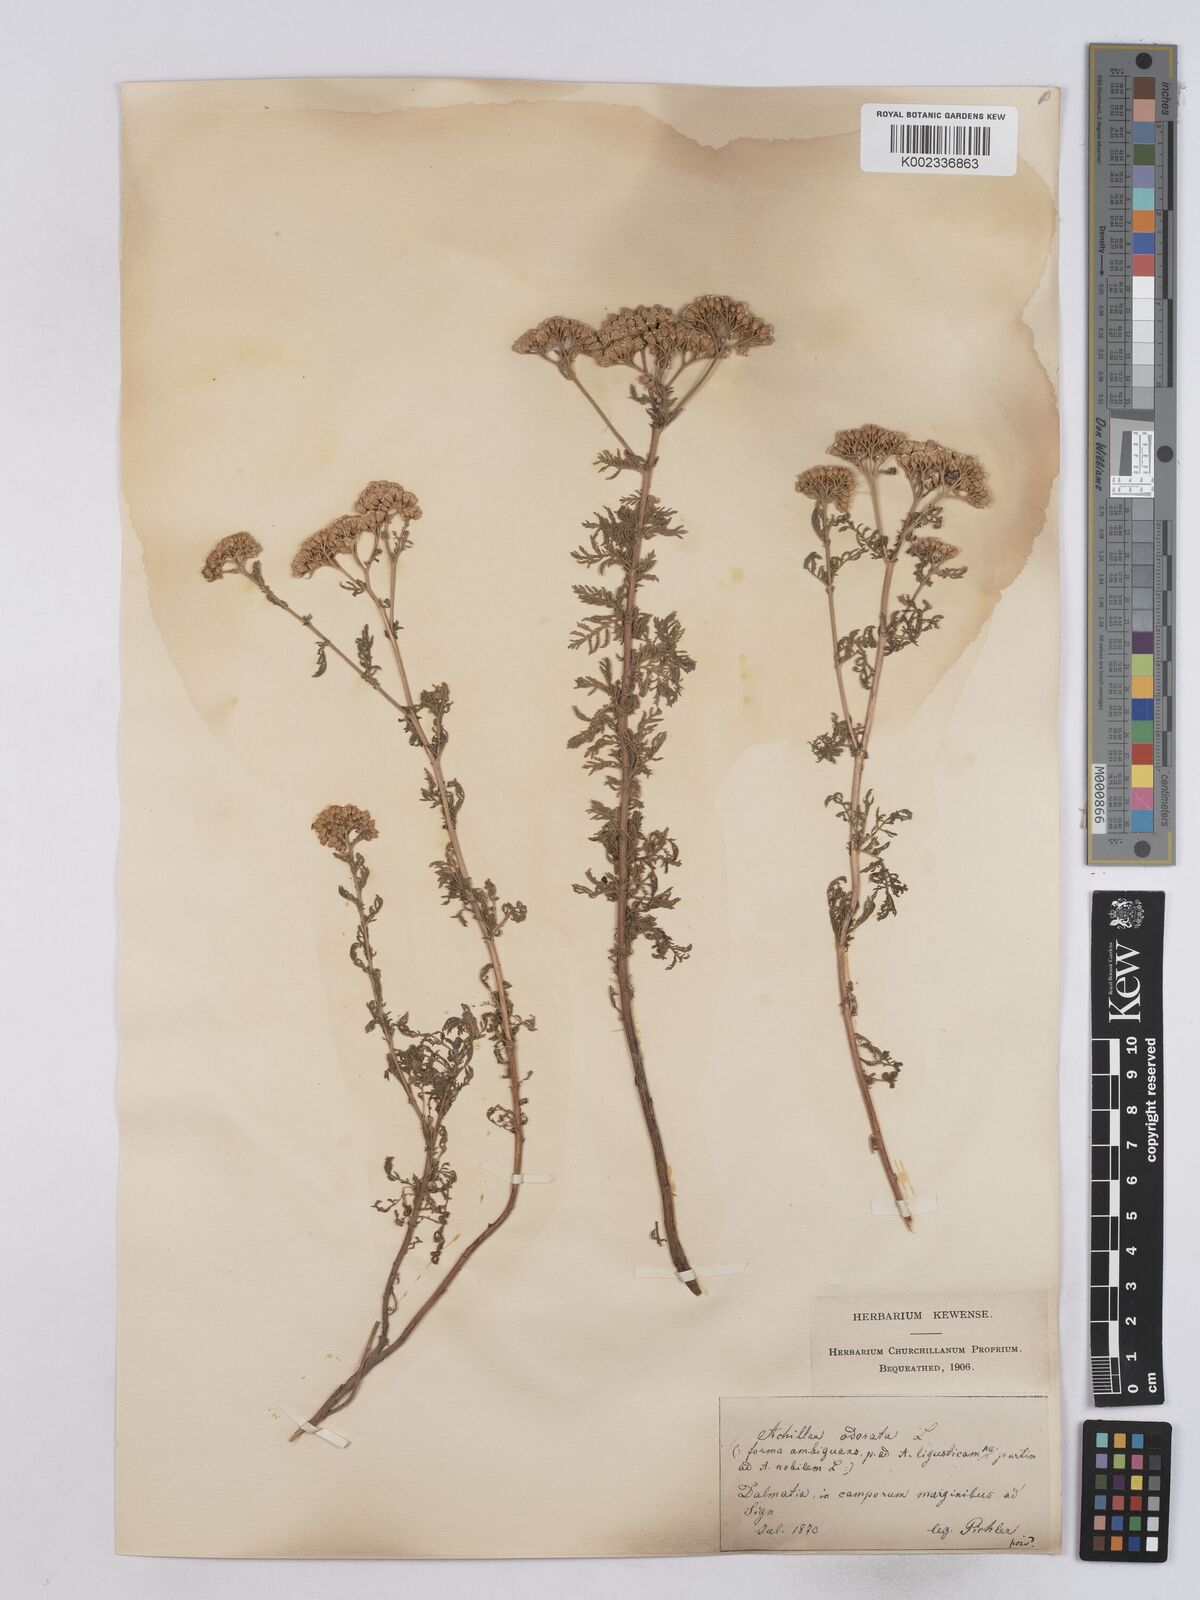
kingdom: Plantae
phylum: Tracheophyta
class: Magnoliopsida
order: Asterales
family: Asteraceae
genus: Achillea
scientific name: Achillea odorata
